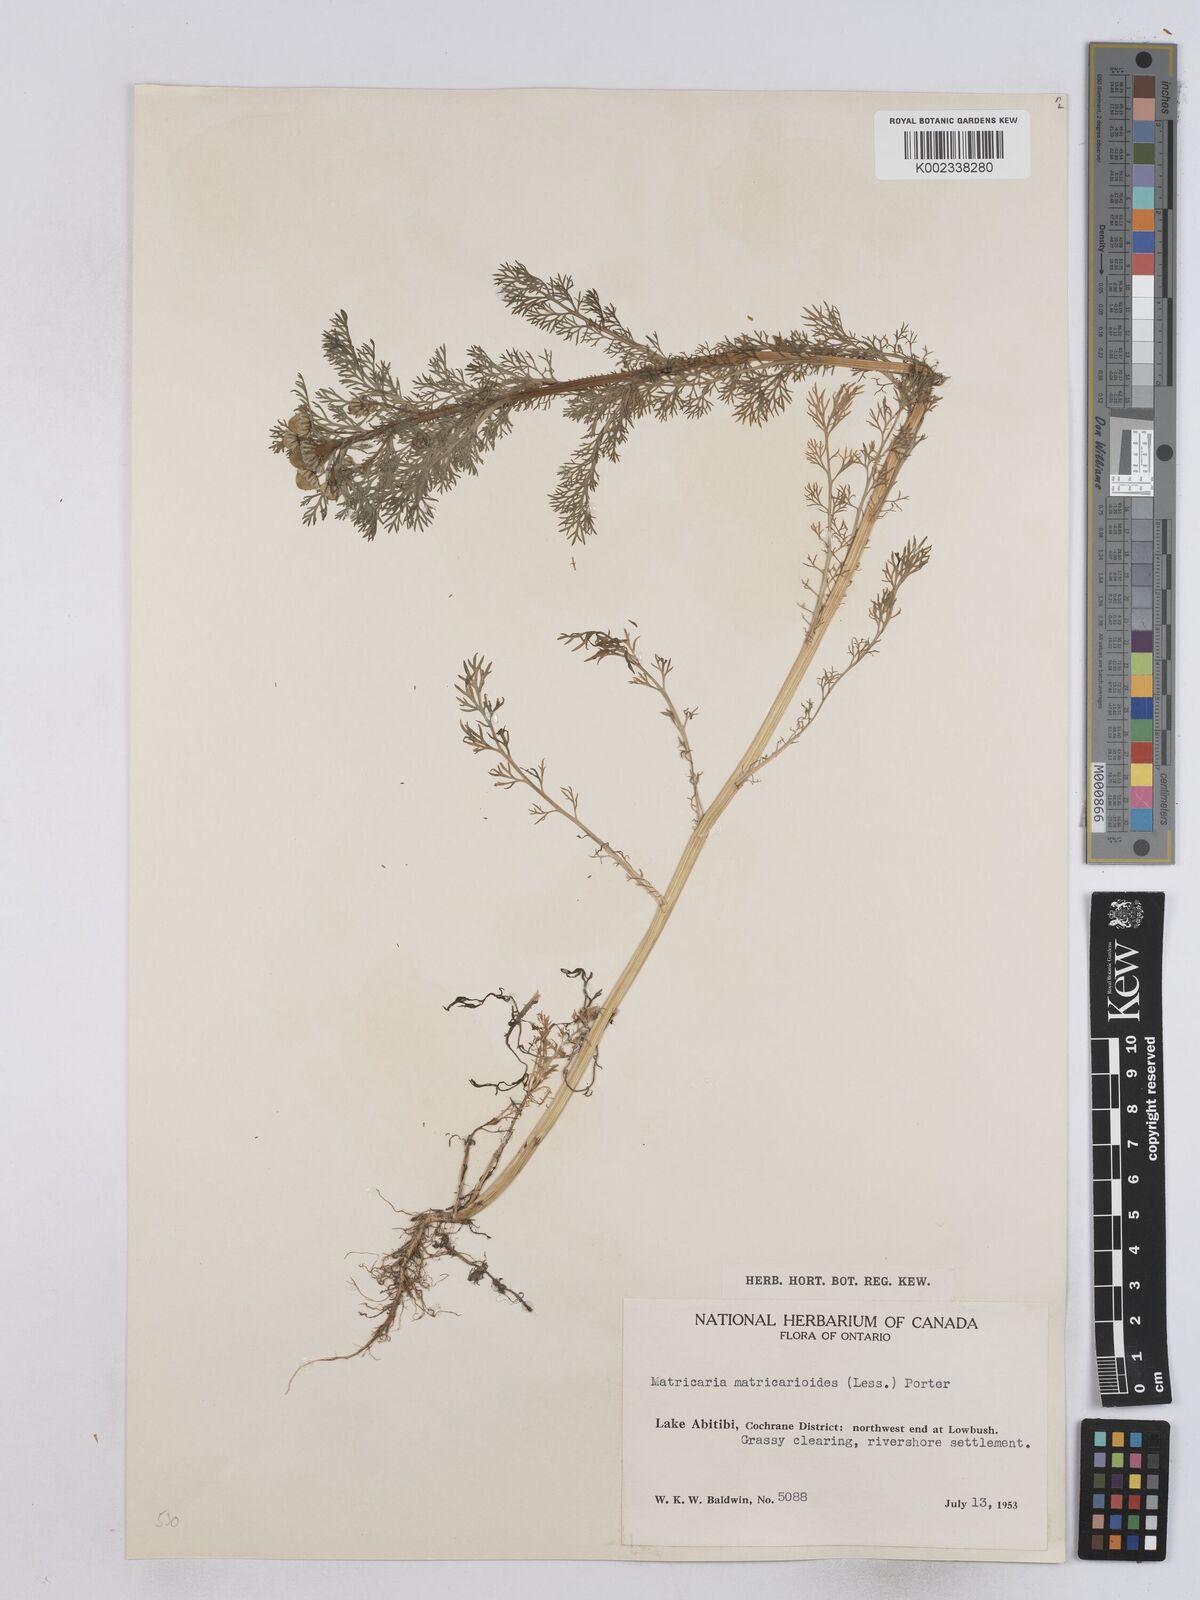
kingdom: Plantae
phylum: Tracheophyta
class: Magnoliopsida
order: Asterales
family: Asteraceae
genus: Matricaria
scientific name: Matricaria discoidea
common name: Disc mayweed
